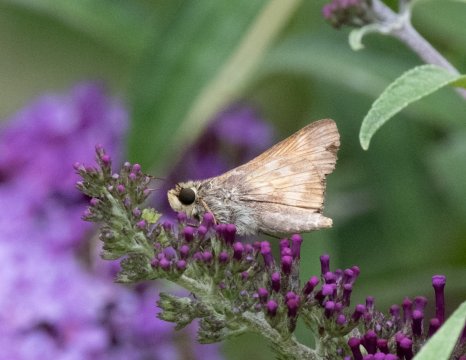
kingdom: Animalia
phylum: Arthropoda
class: Insecta
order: Lepidoptera
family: Hesperiidae
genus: Atalopedes
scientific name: Atalopedes campestris
